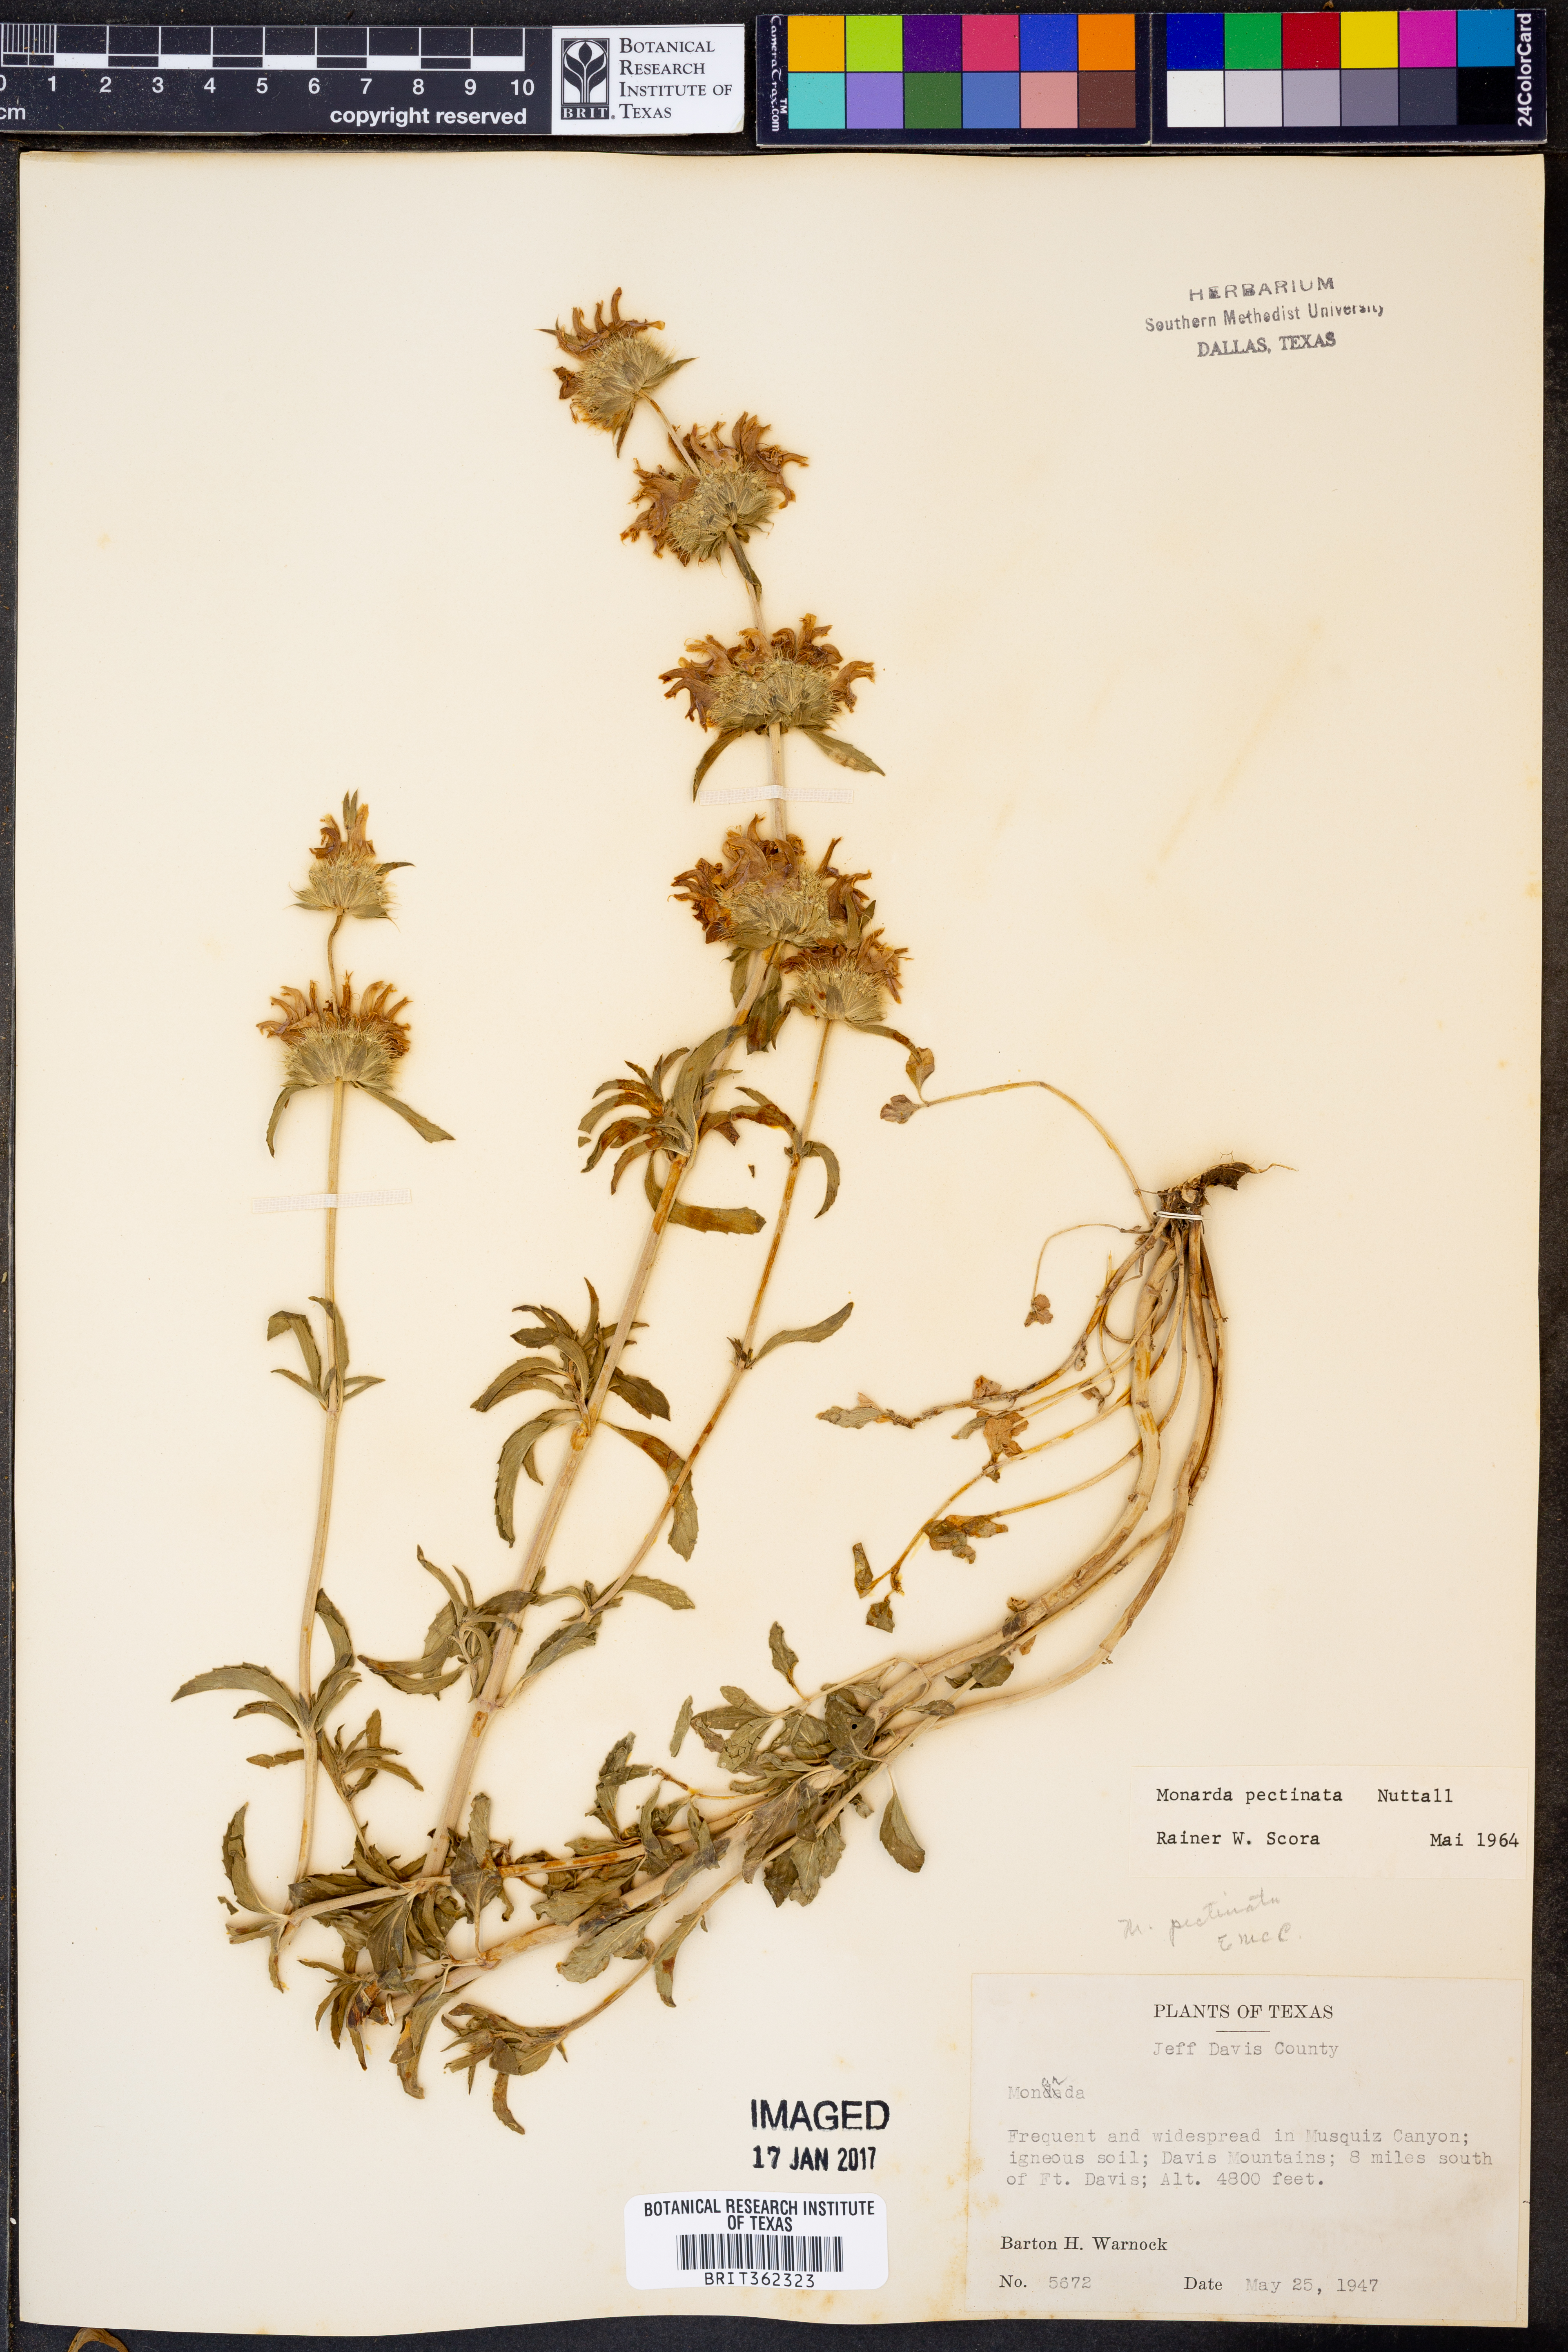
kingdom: Plantae
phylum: Tracheophyta
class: Magnoliopsida
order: Lamiales
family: Lamiaceae
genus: Monarda
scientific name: Monarda pectinata
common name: Plains beebalm
